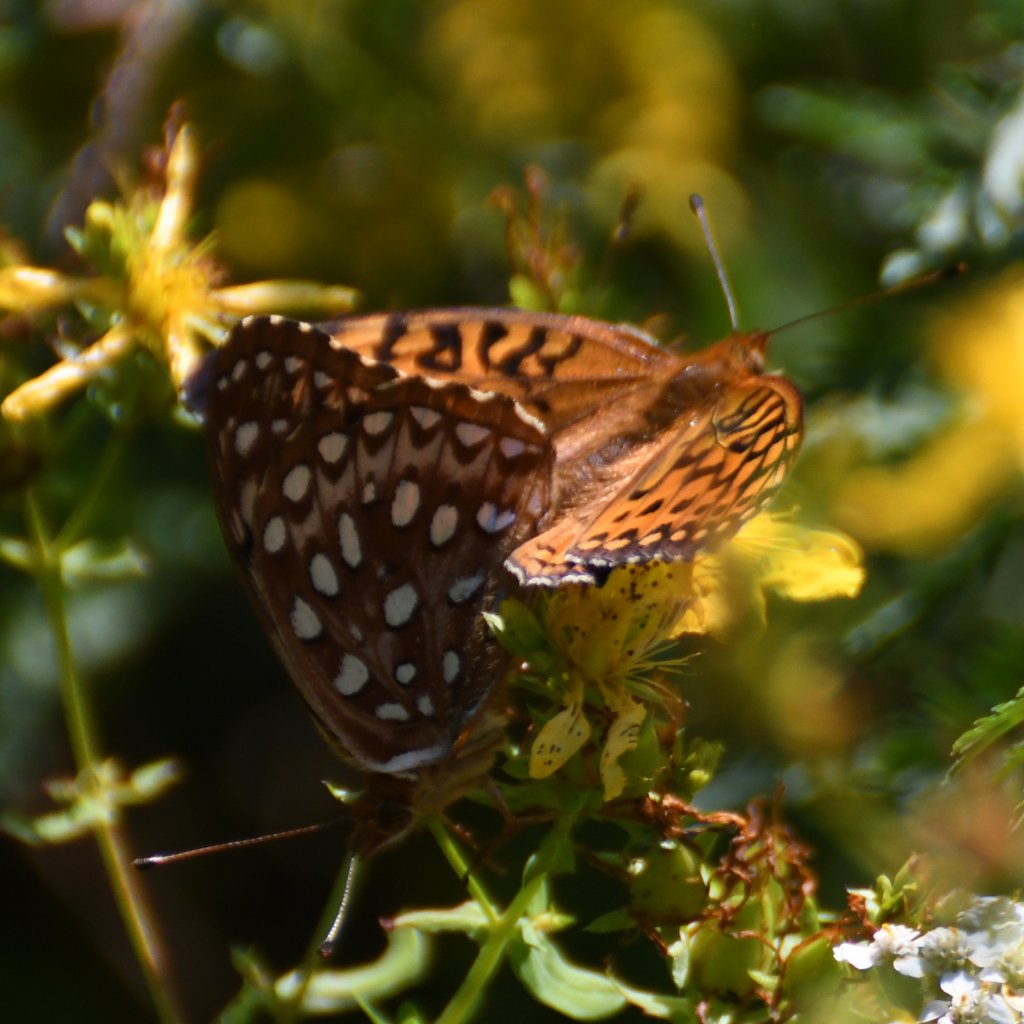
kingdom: Animalia
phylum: Arthropoda
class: Insecta
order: Lepidoptera
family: Nymphalidae
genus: Speyeria
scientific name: Speyeria aphrodite
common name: Aphrodite Fritillary
